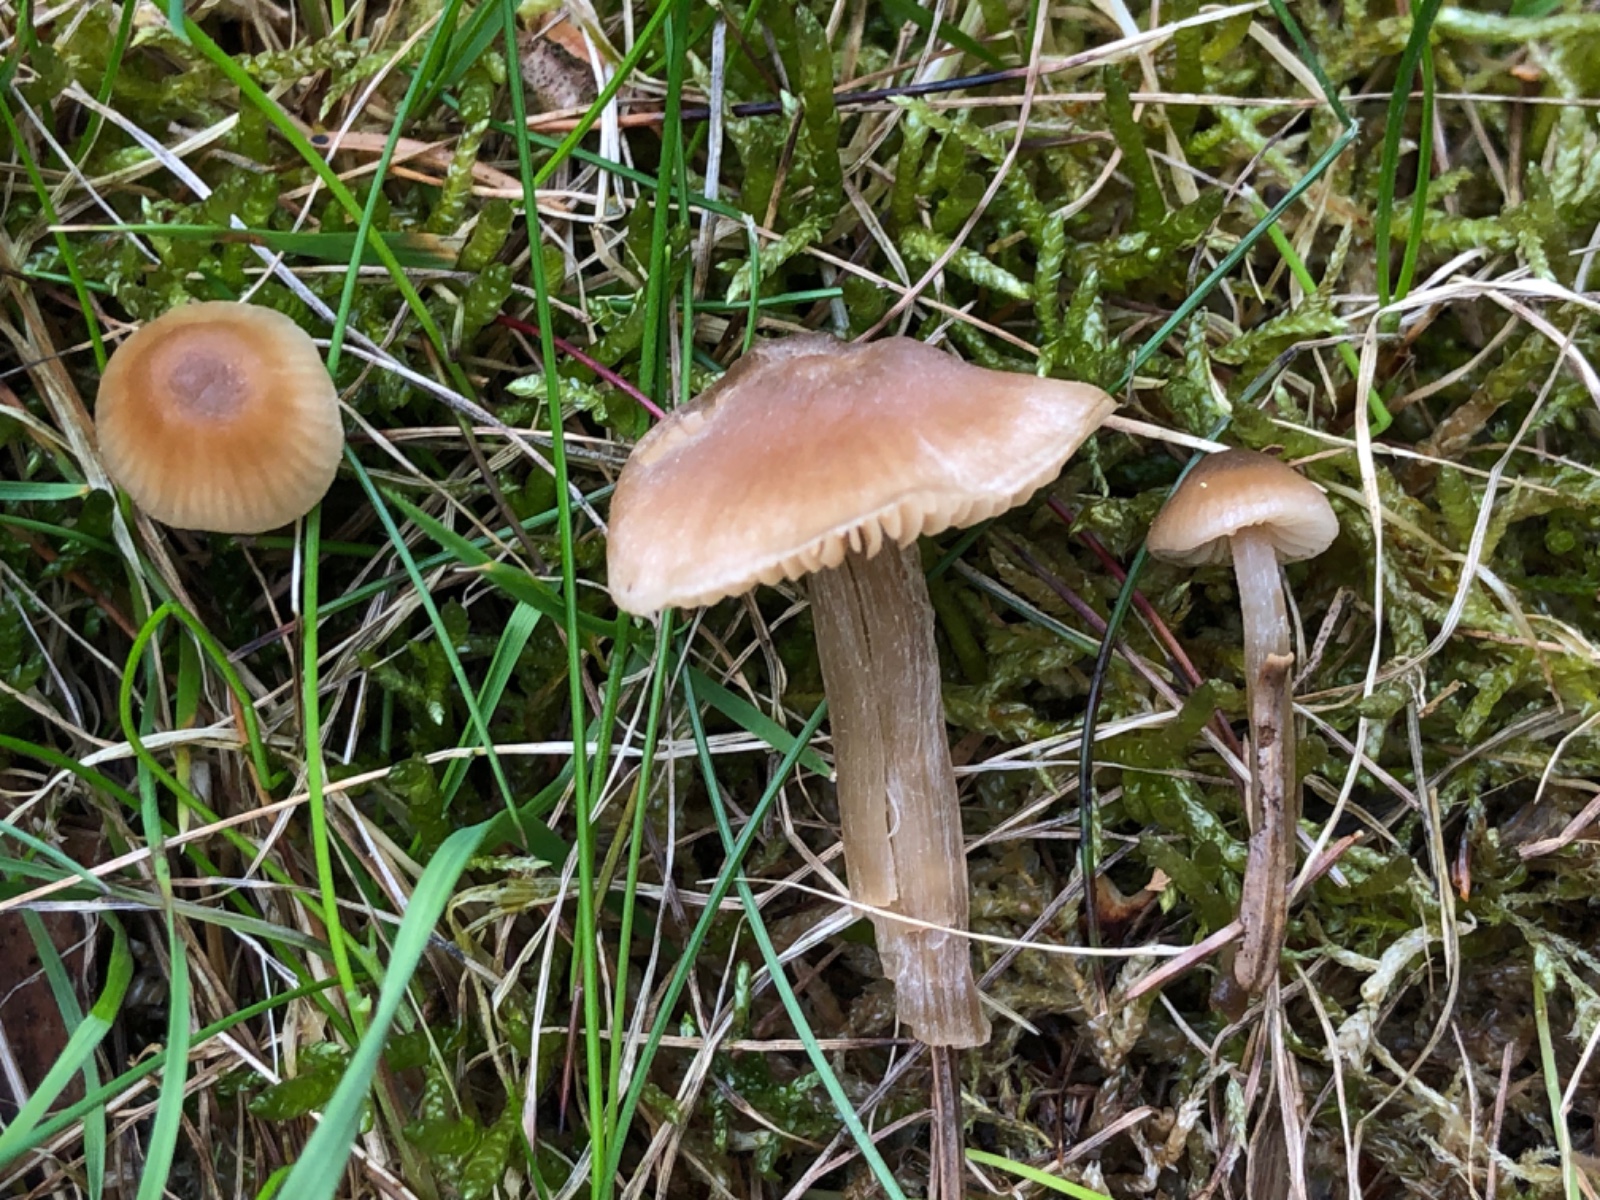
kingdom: Fungi
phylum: Basidiomycota
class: Agaricomycetes
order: Agaricales
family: Entolomataceae
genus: Entoloma
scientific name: Entoloma cetratum
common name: voks-rødblad
